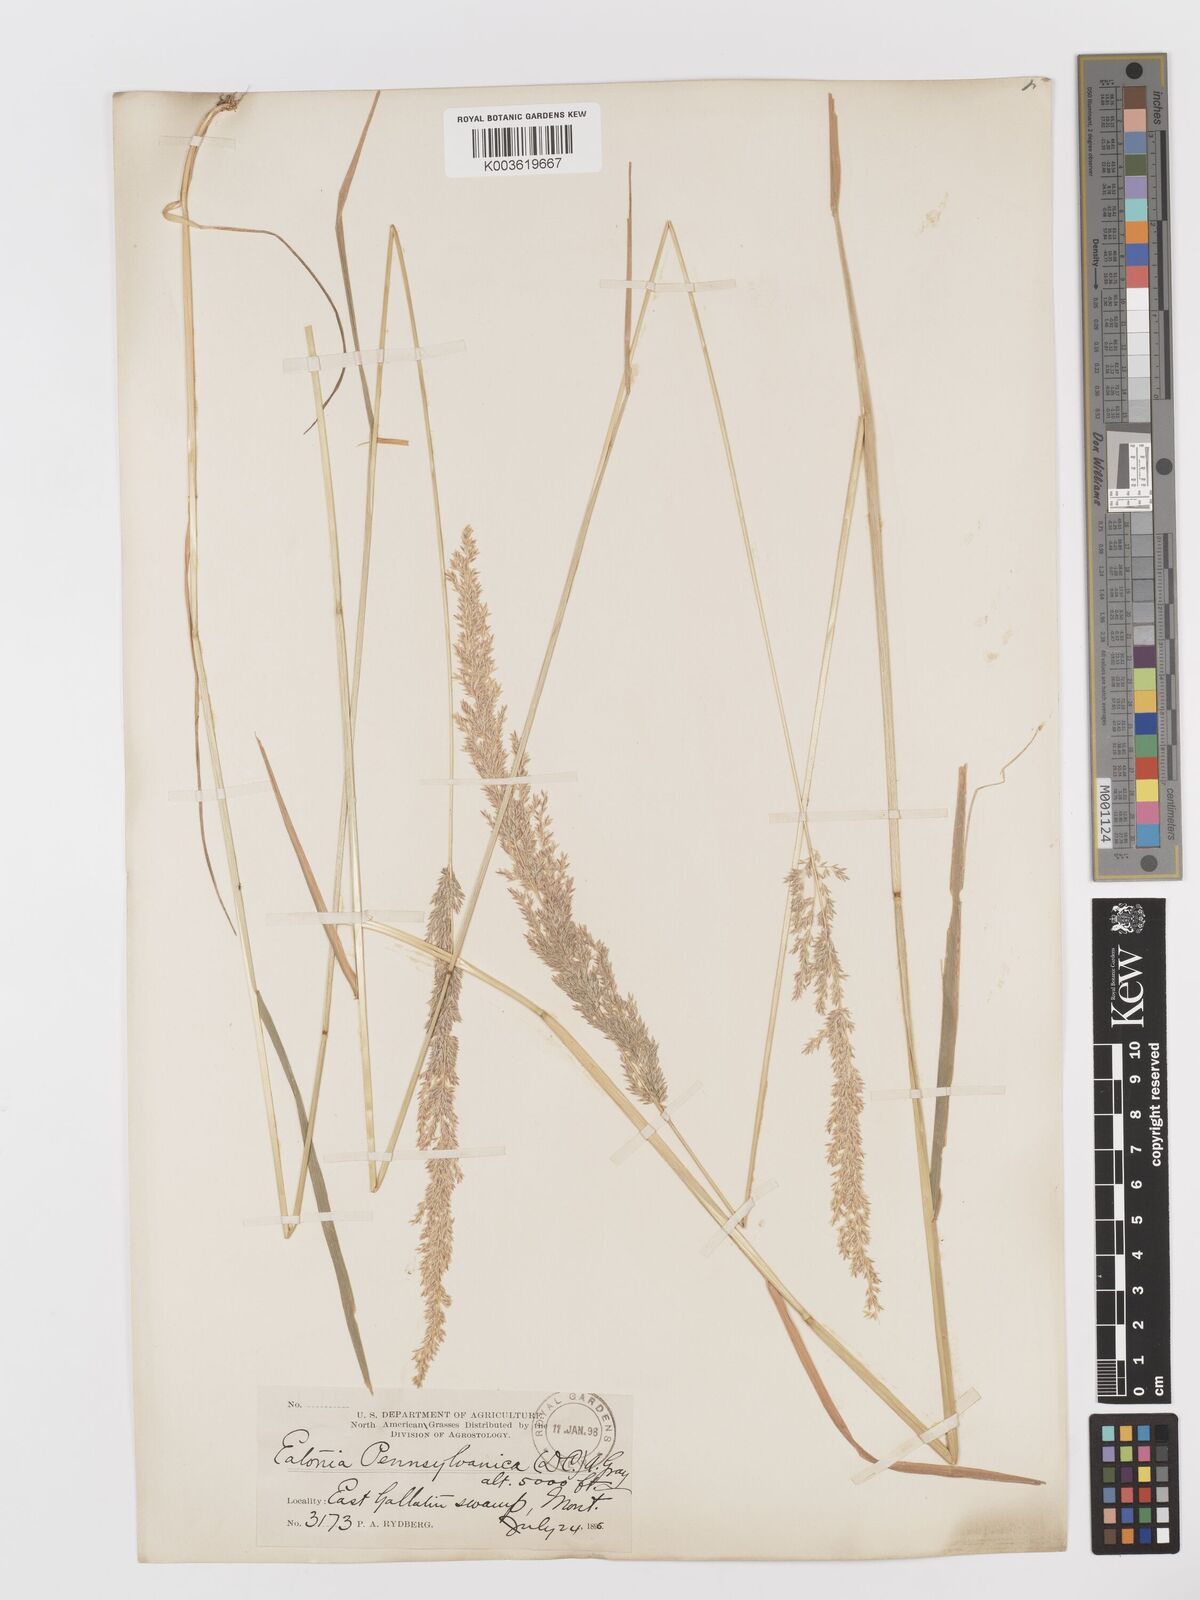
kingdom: Plantae
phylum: Tracheophyta
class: Liliopsida
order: Poales
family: Poaceae
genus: Sphenopholis
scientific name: Sphenopholis obtusata
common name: Prairie grass
